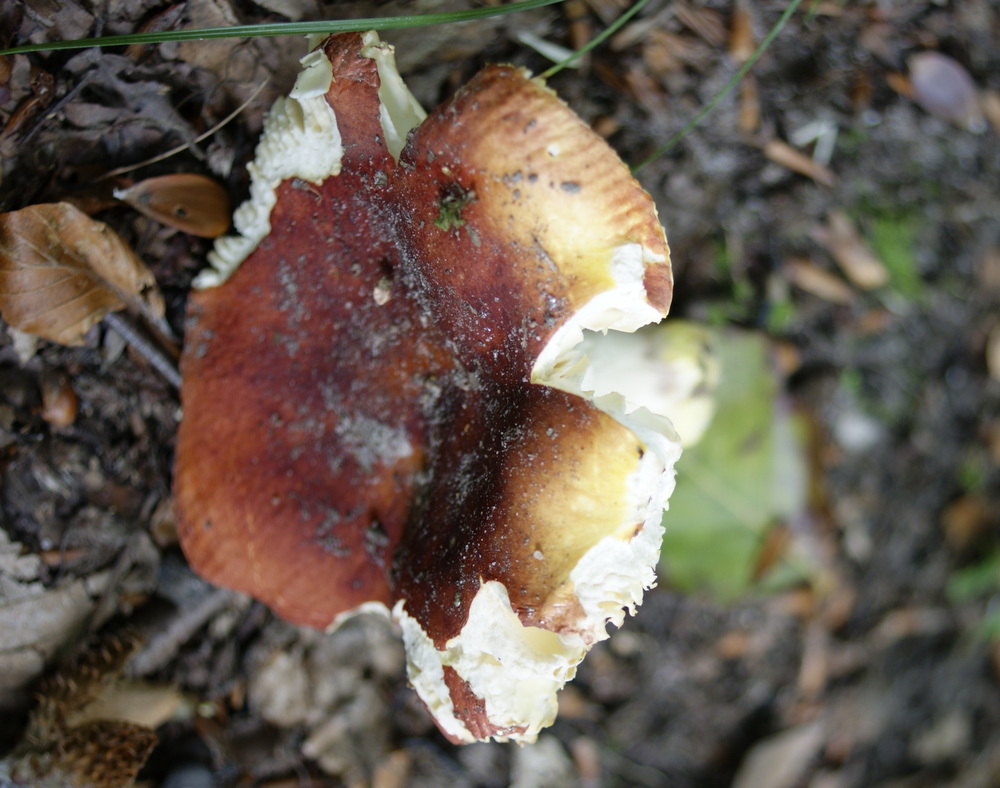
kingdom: Fungi
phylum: Basidiomycota
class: Agaricomycetes
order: Russulales
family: Russulaceae
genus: Russula
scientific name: Russula aurea
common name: gylden skørhat
